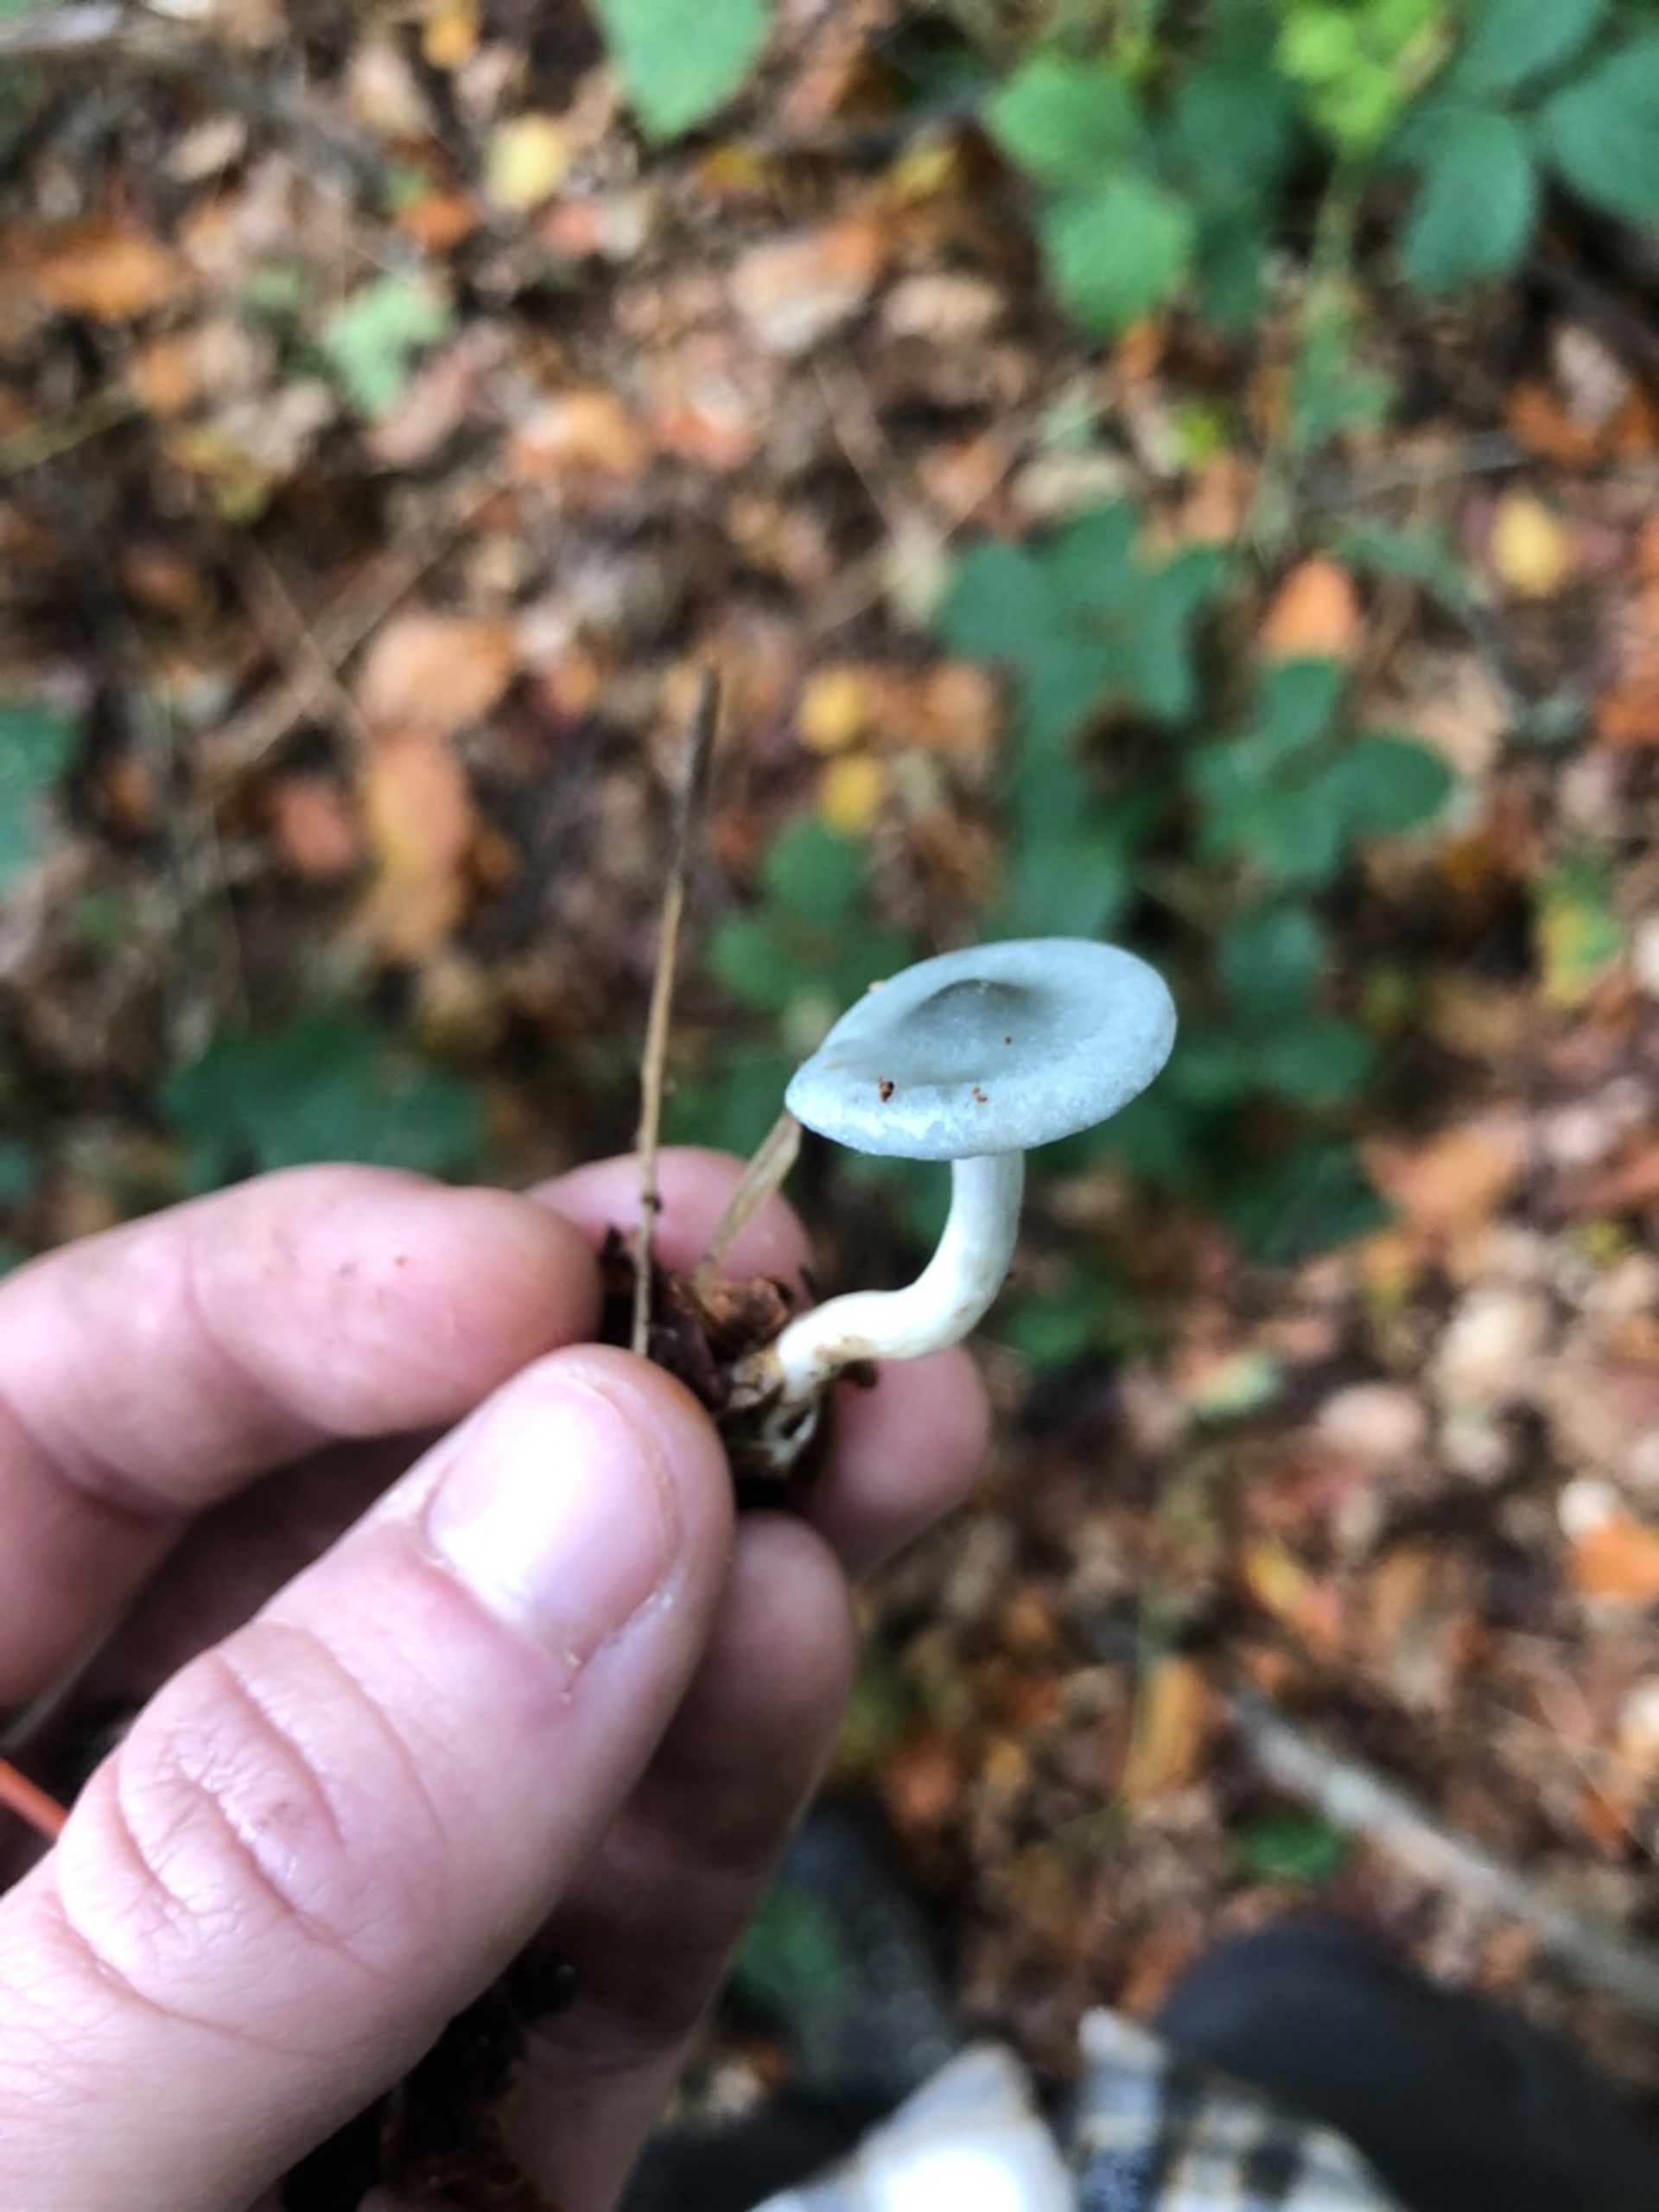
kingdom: Fungi
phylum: Basidiomycota
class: Agaricomycetes
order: Agaricales
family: Tricholomataceae
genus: Clitocybe
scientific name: Clitocybe odora
